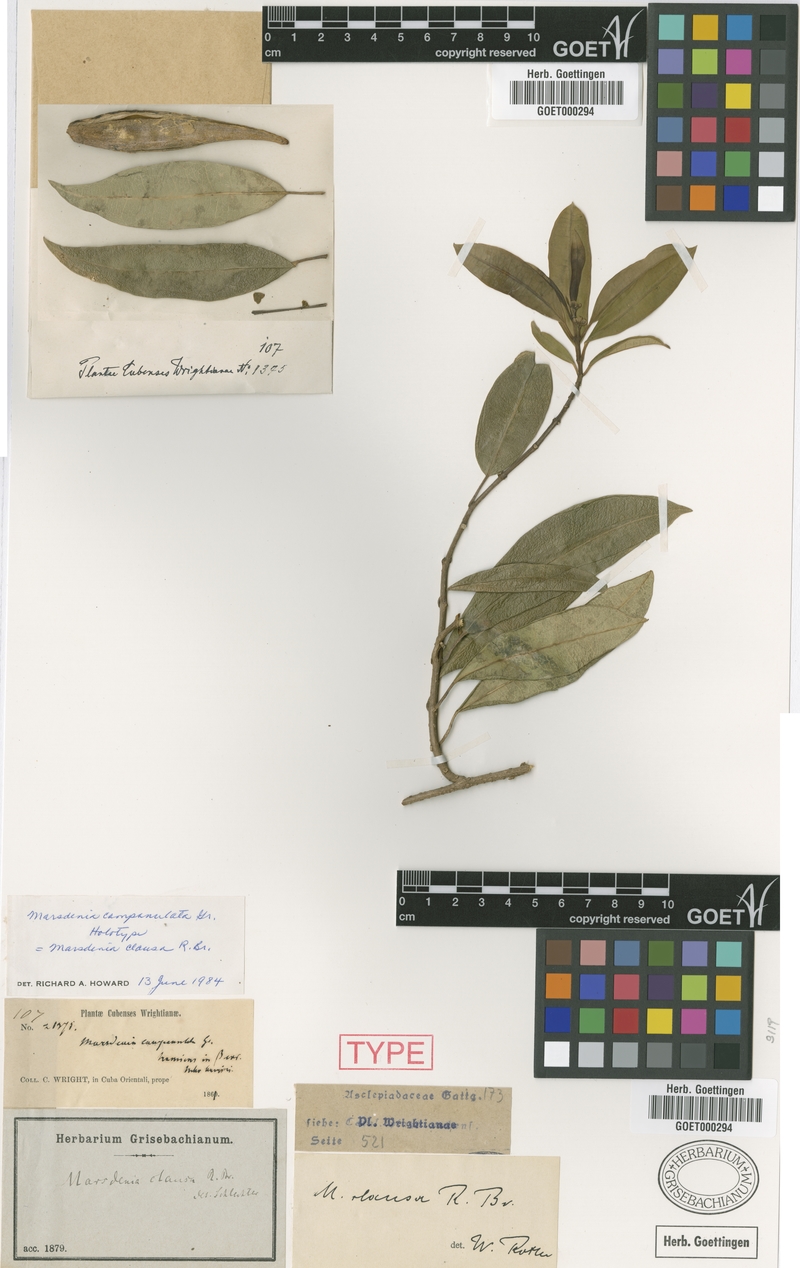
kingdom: Plantae
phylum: Tracheophyta
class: Magnoliopsida
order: Gentianales
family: Apocynaceae
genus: Ruehssia
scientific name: Ruehssia clausa
